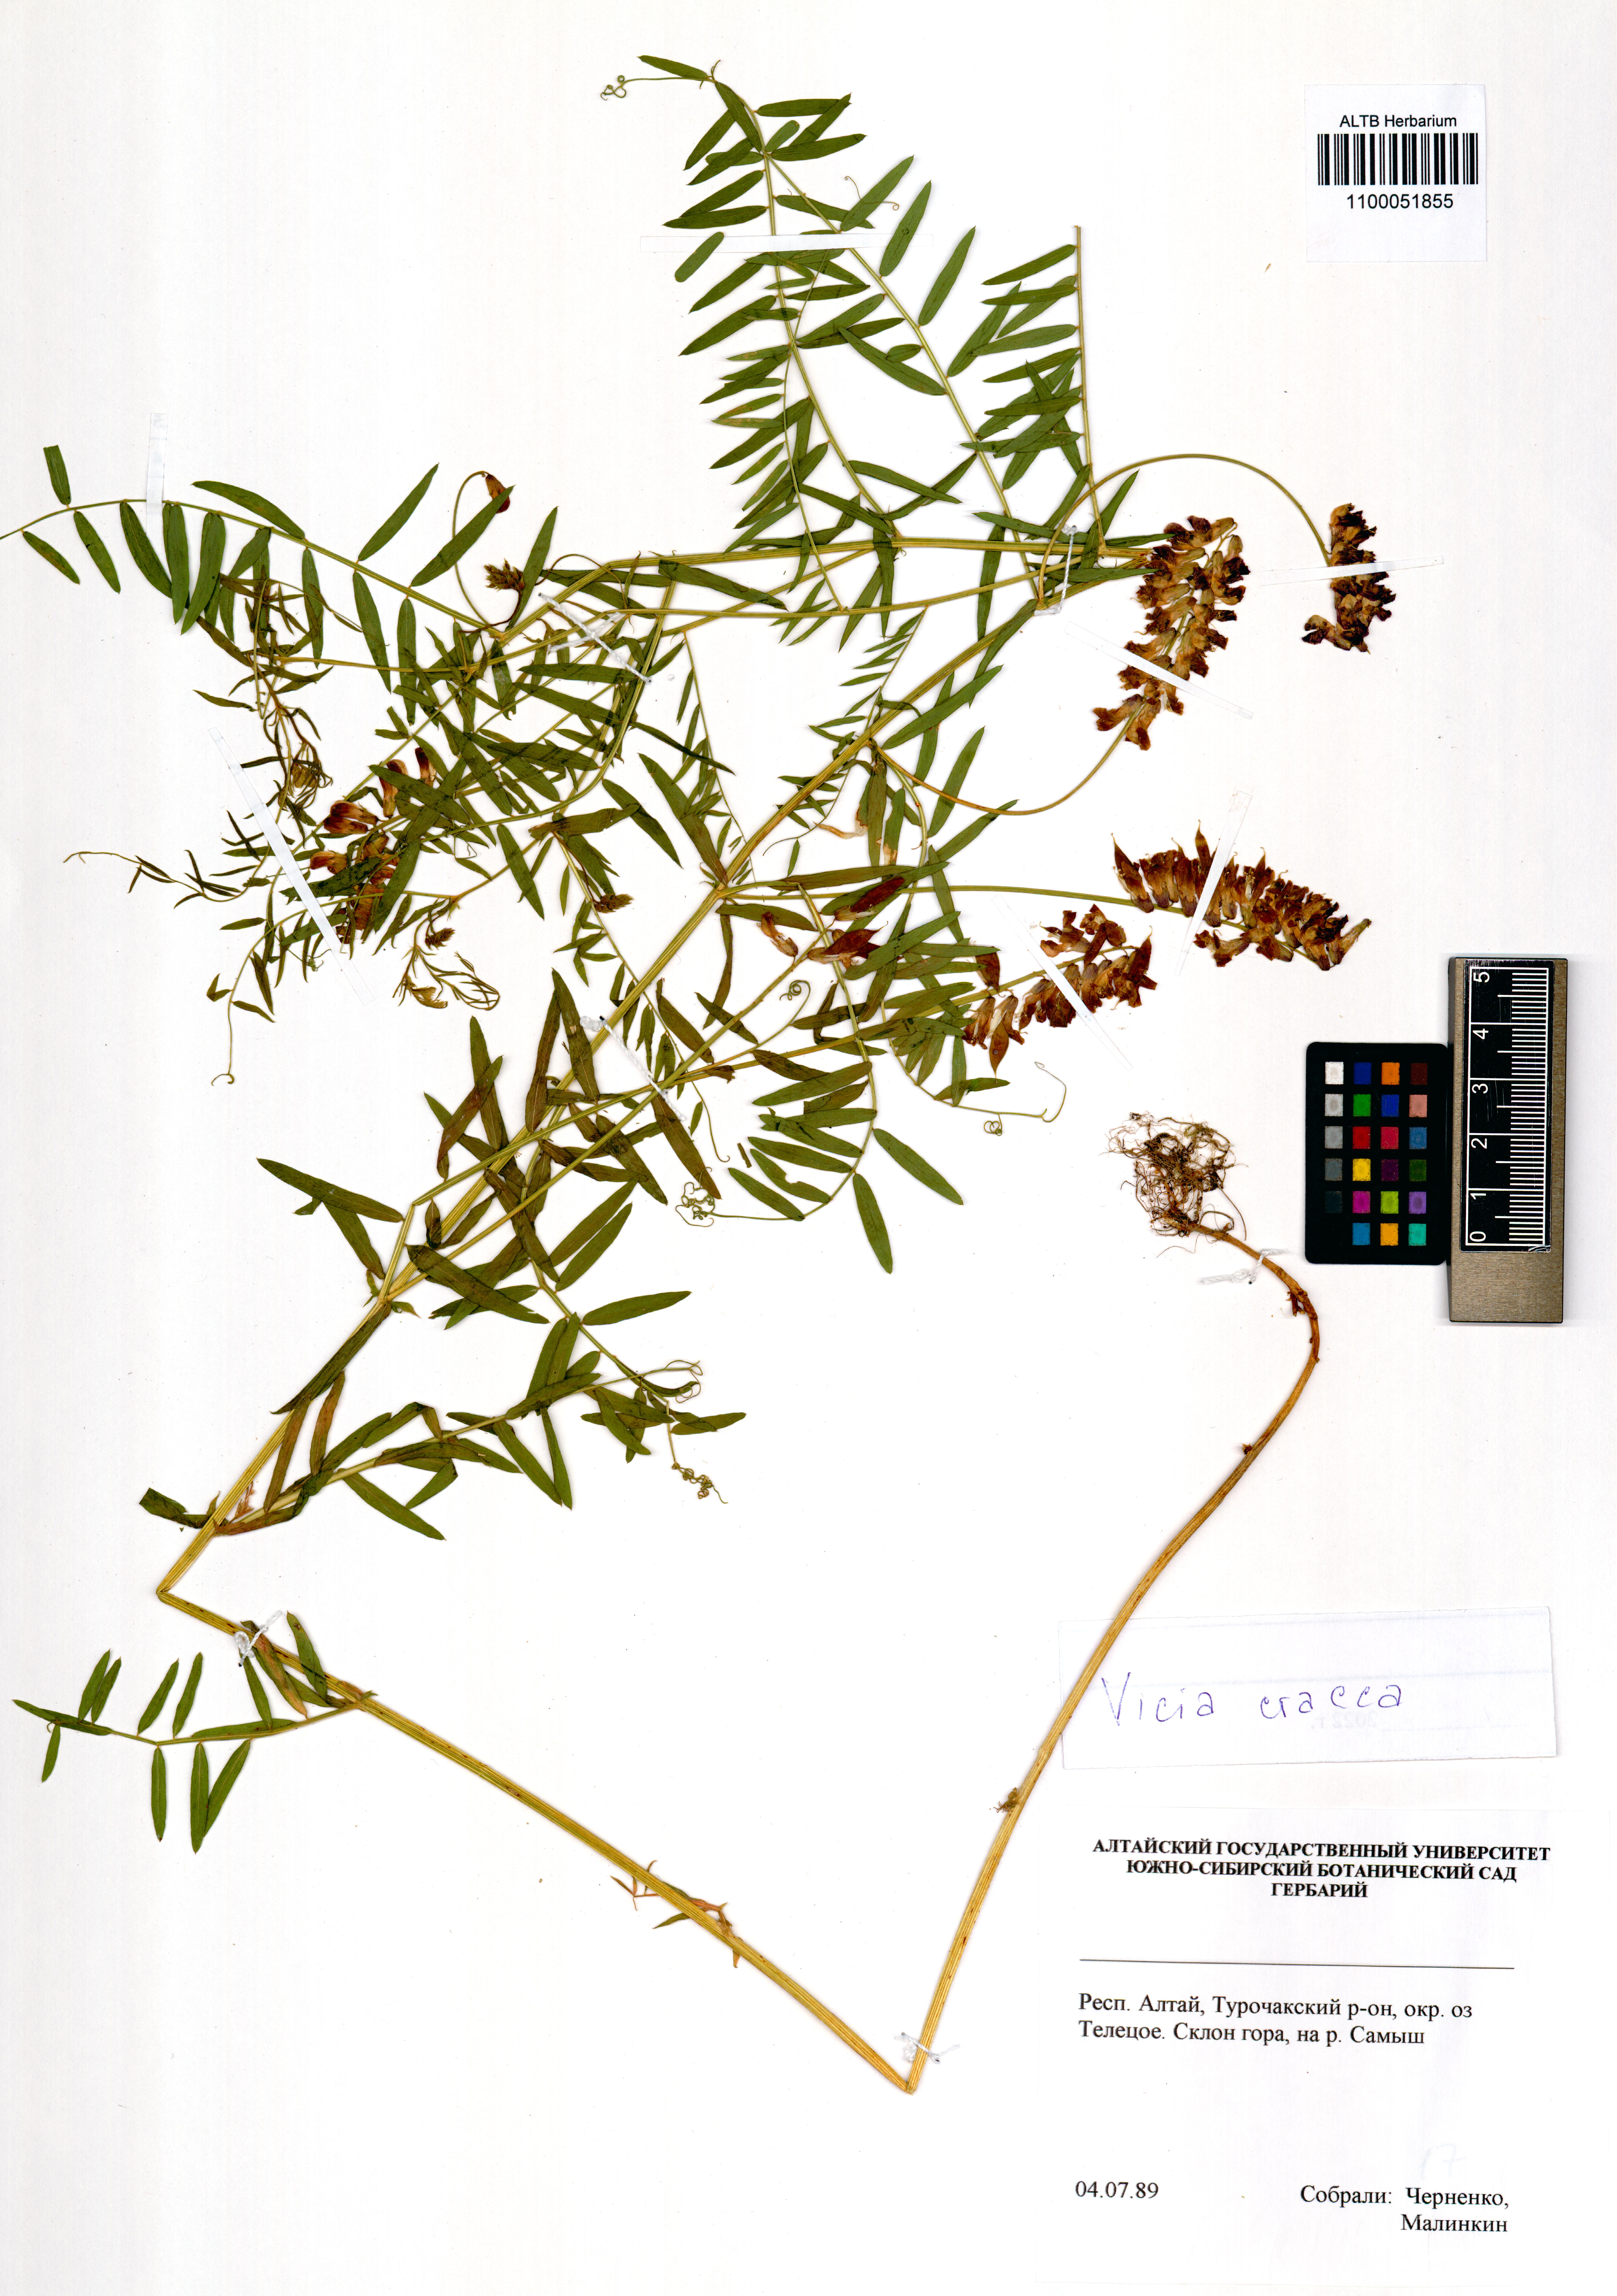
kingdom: Plantae
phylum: Tracheophyta
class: Magnoliopsida
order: Fabales
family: Fabaceae
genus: Vicia
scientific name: Vicia cracca
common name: Bird vetch
